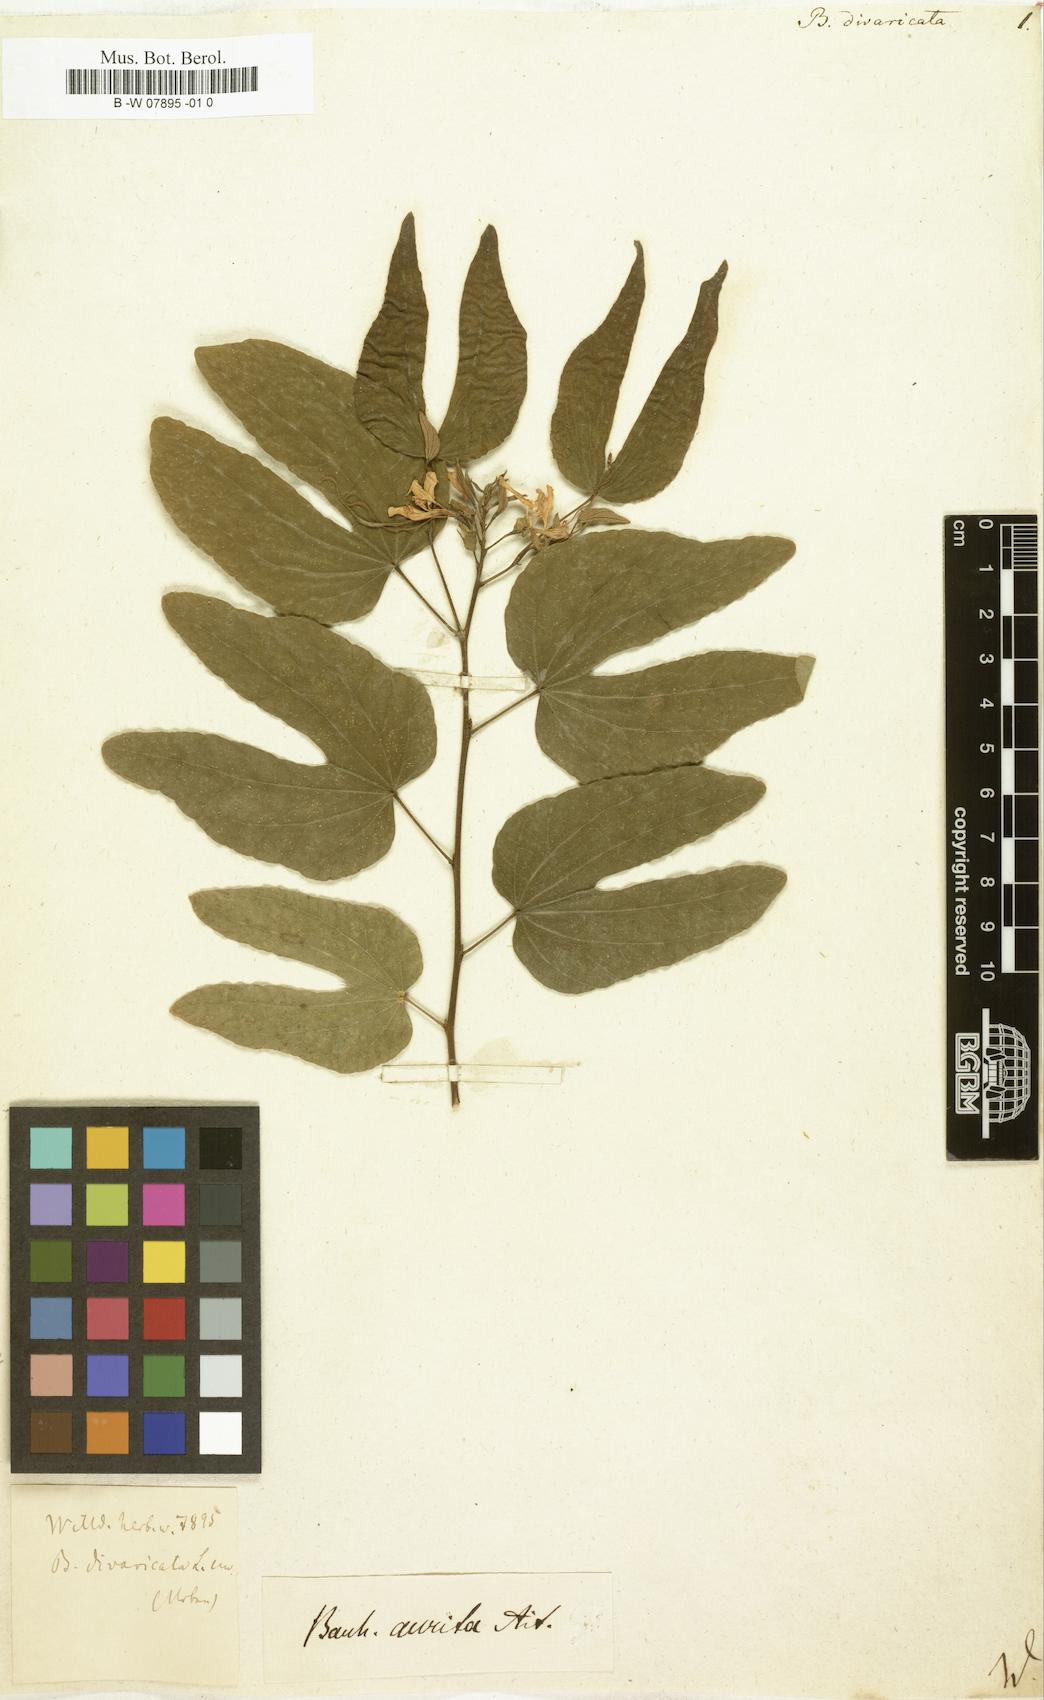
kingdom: Plantae
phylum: Tracheophyta
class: Magnoliopsida
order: Fabales
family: Fabaceae
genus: Bauhinia
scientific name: Bauhinia divaricata
